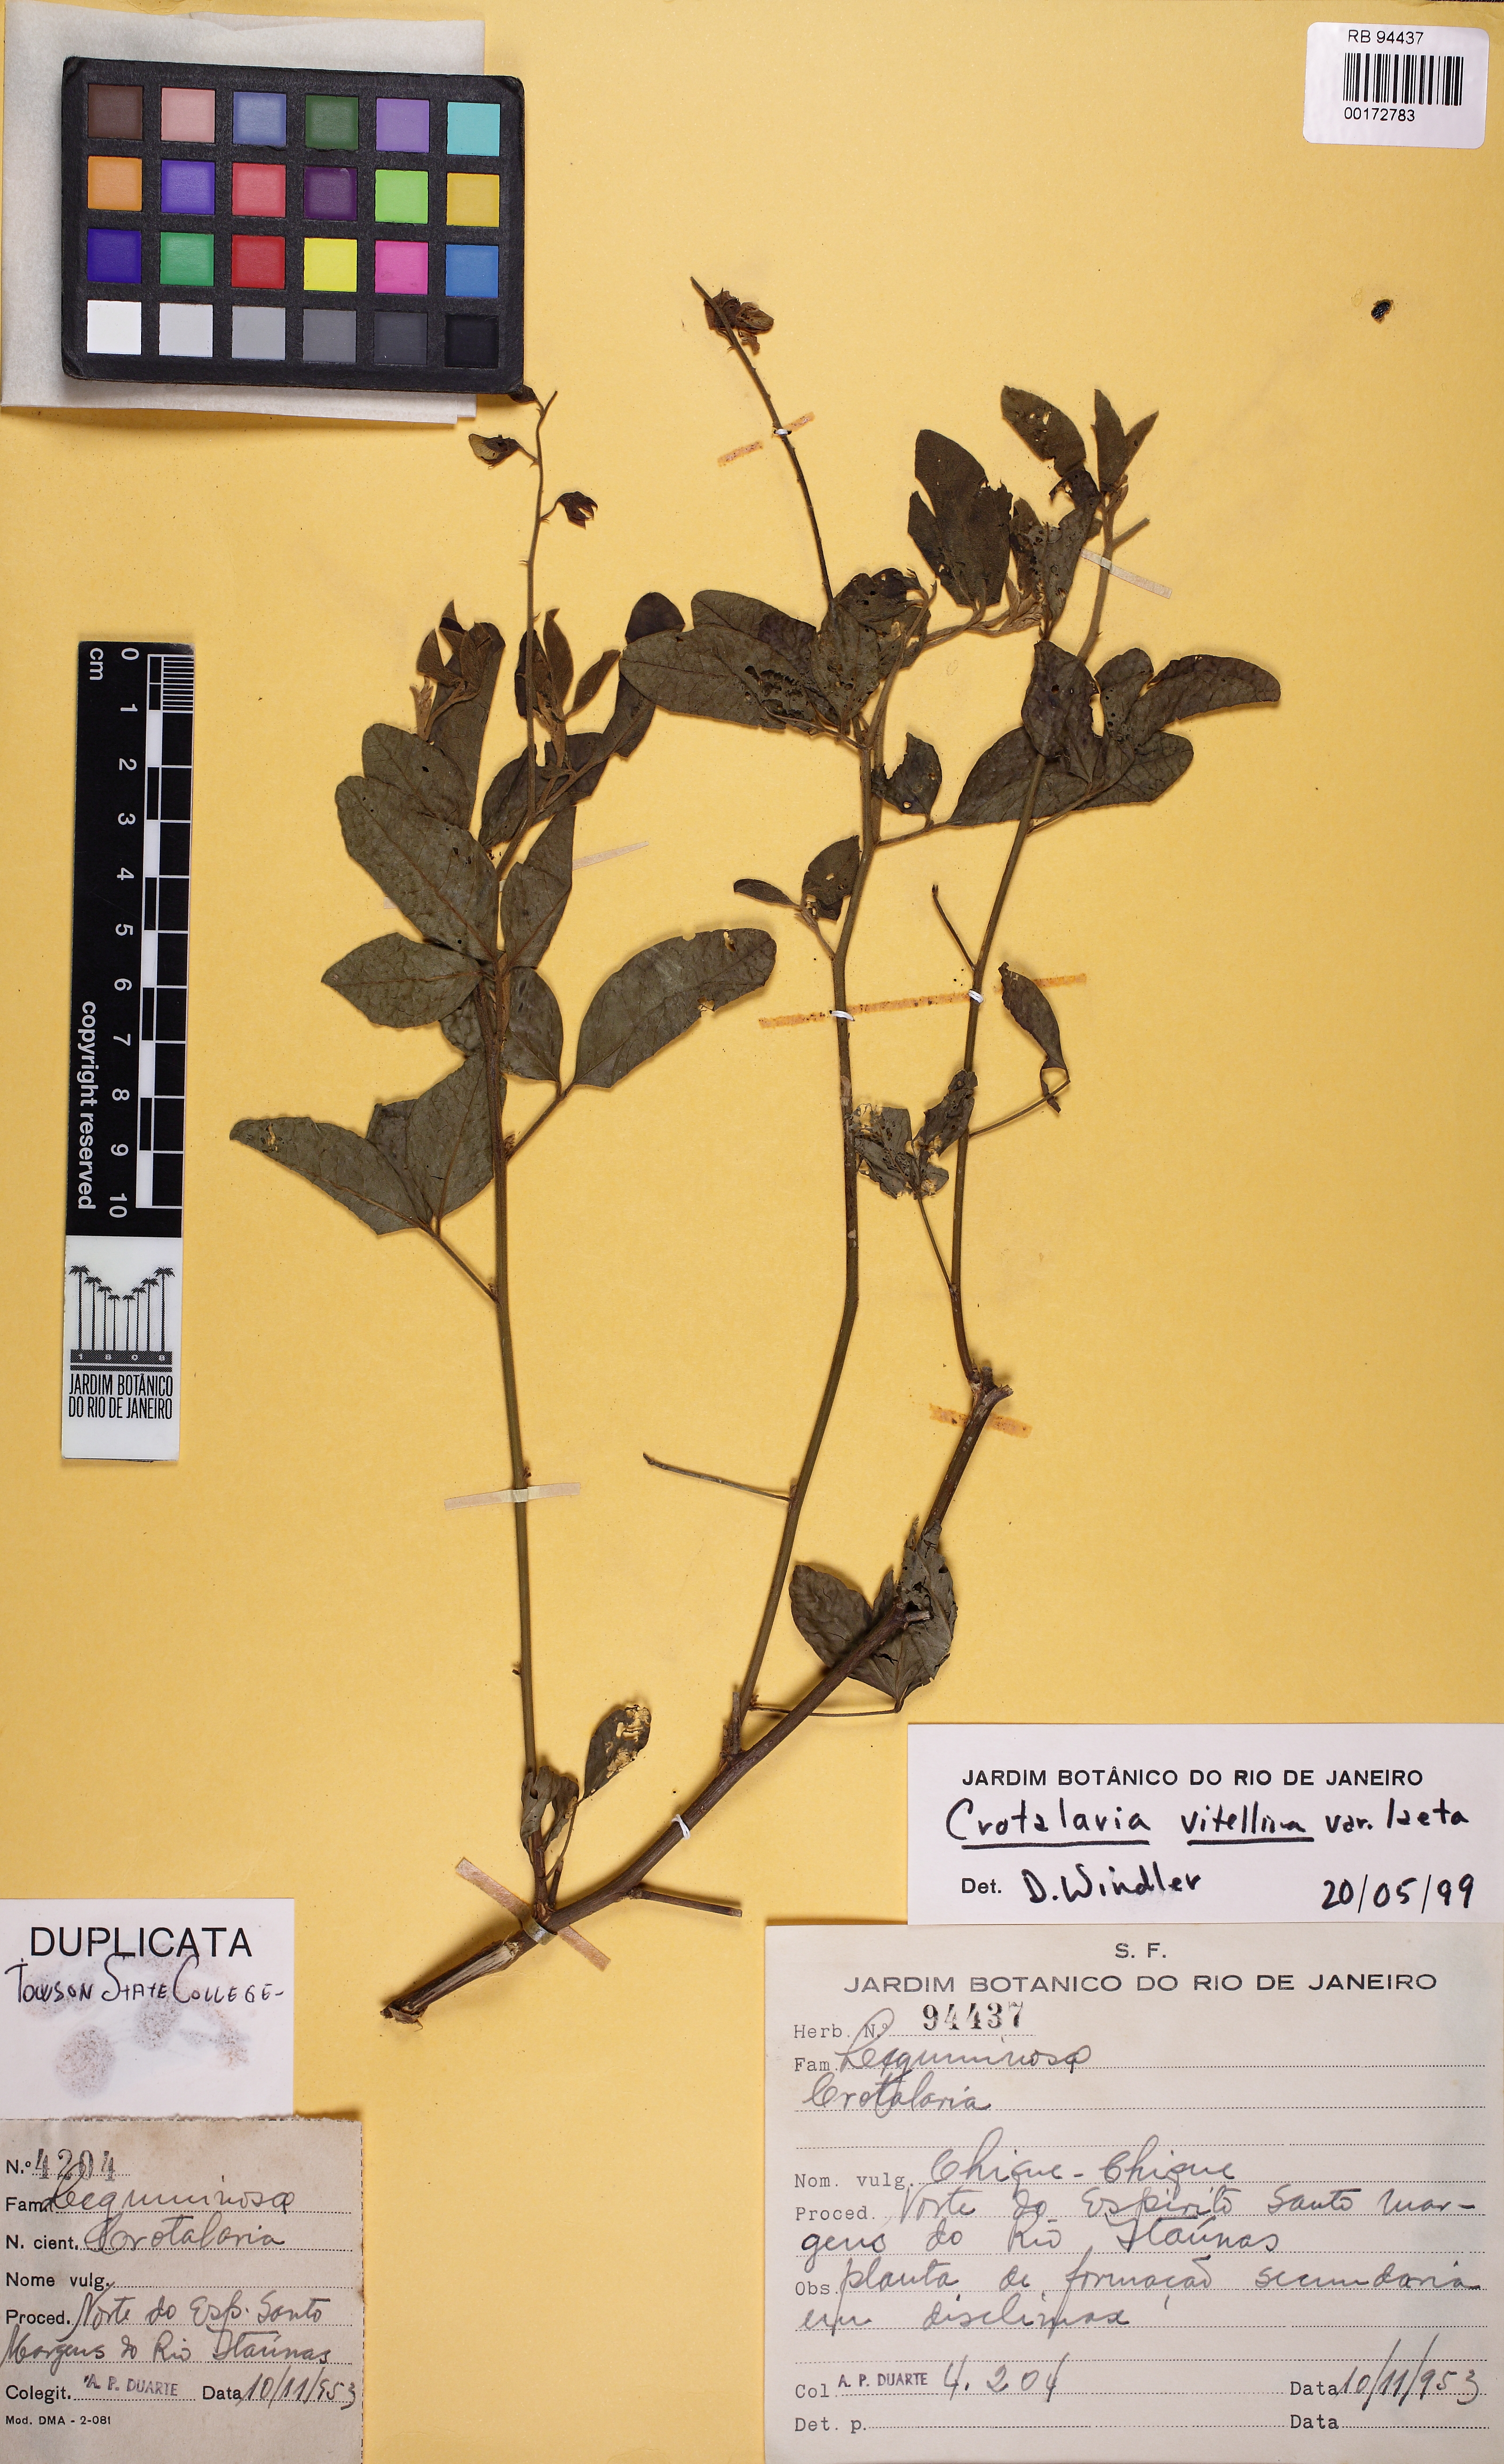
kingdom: Plantae
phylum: Tracheophyta
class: Magnoliopsida
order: Fabales
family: Fabaceae
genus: Crotalaria
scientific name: Crotalaria vitellina
